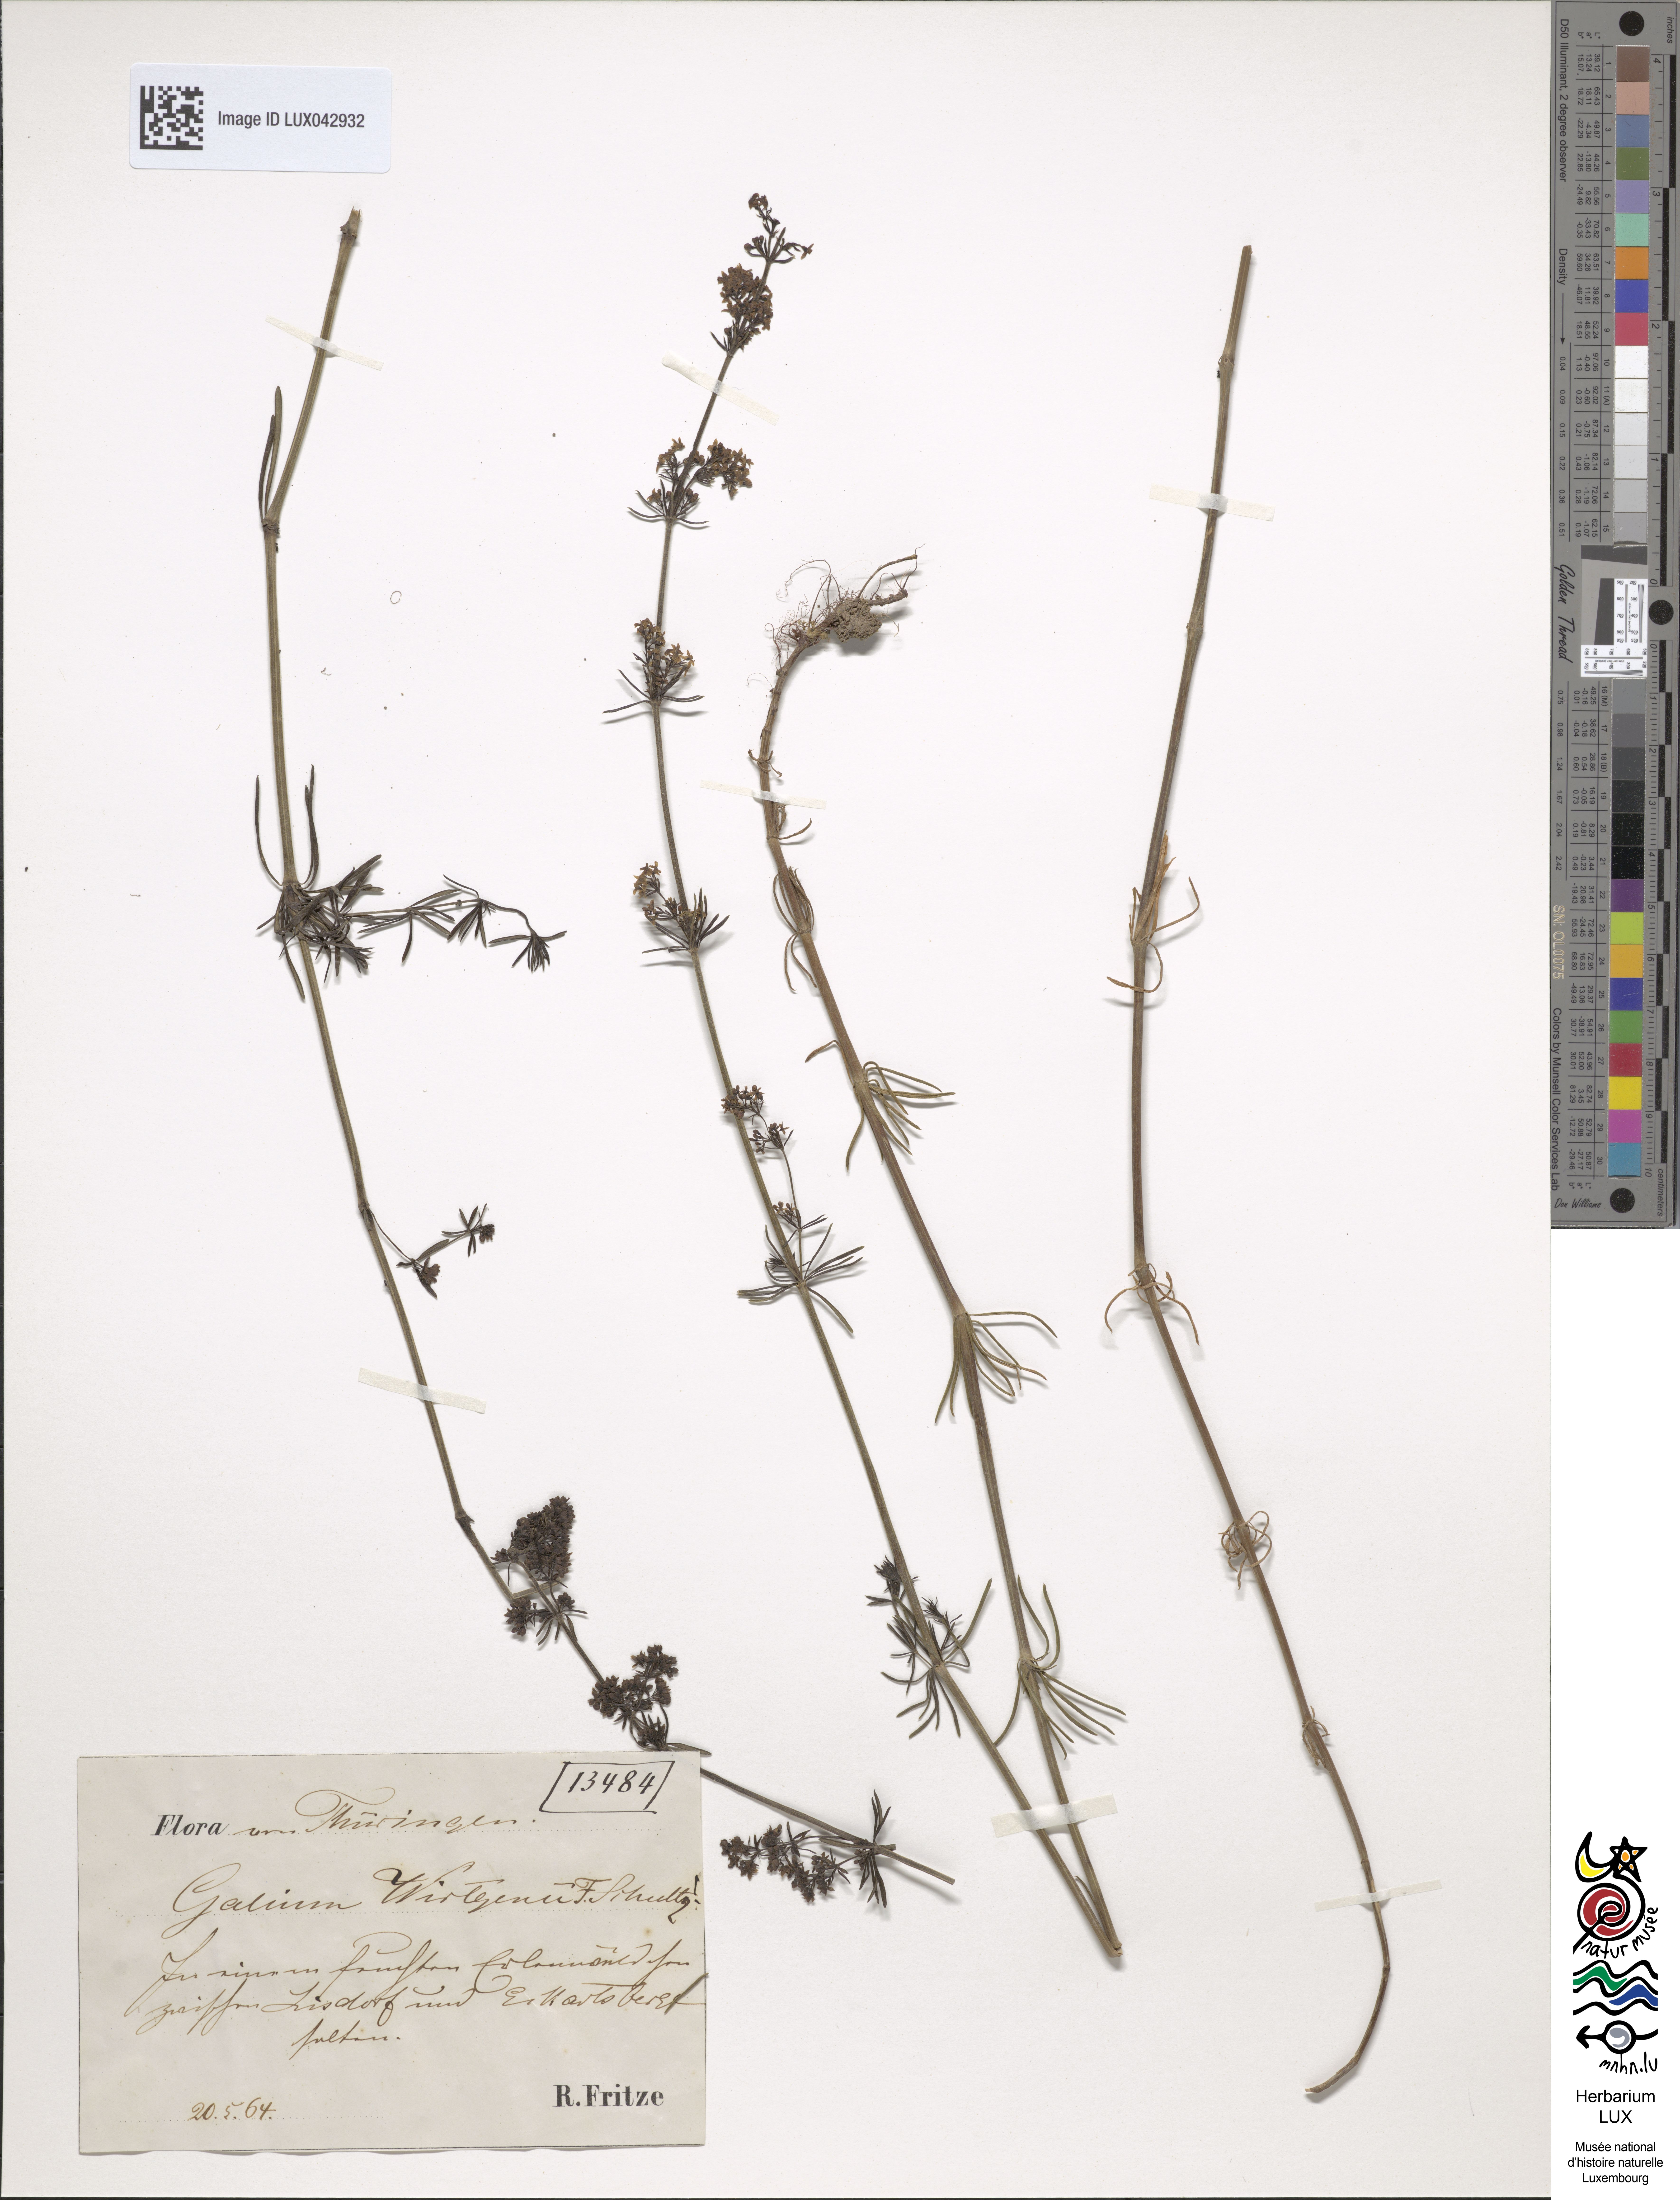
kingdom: Plantae
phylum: Tracheophyta
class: Magnoliopsida
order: Gentianales
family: Rubiaceae
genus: Galium
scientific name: Galium verum
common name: Lady's bedstraw
